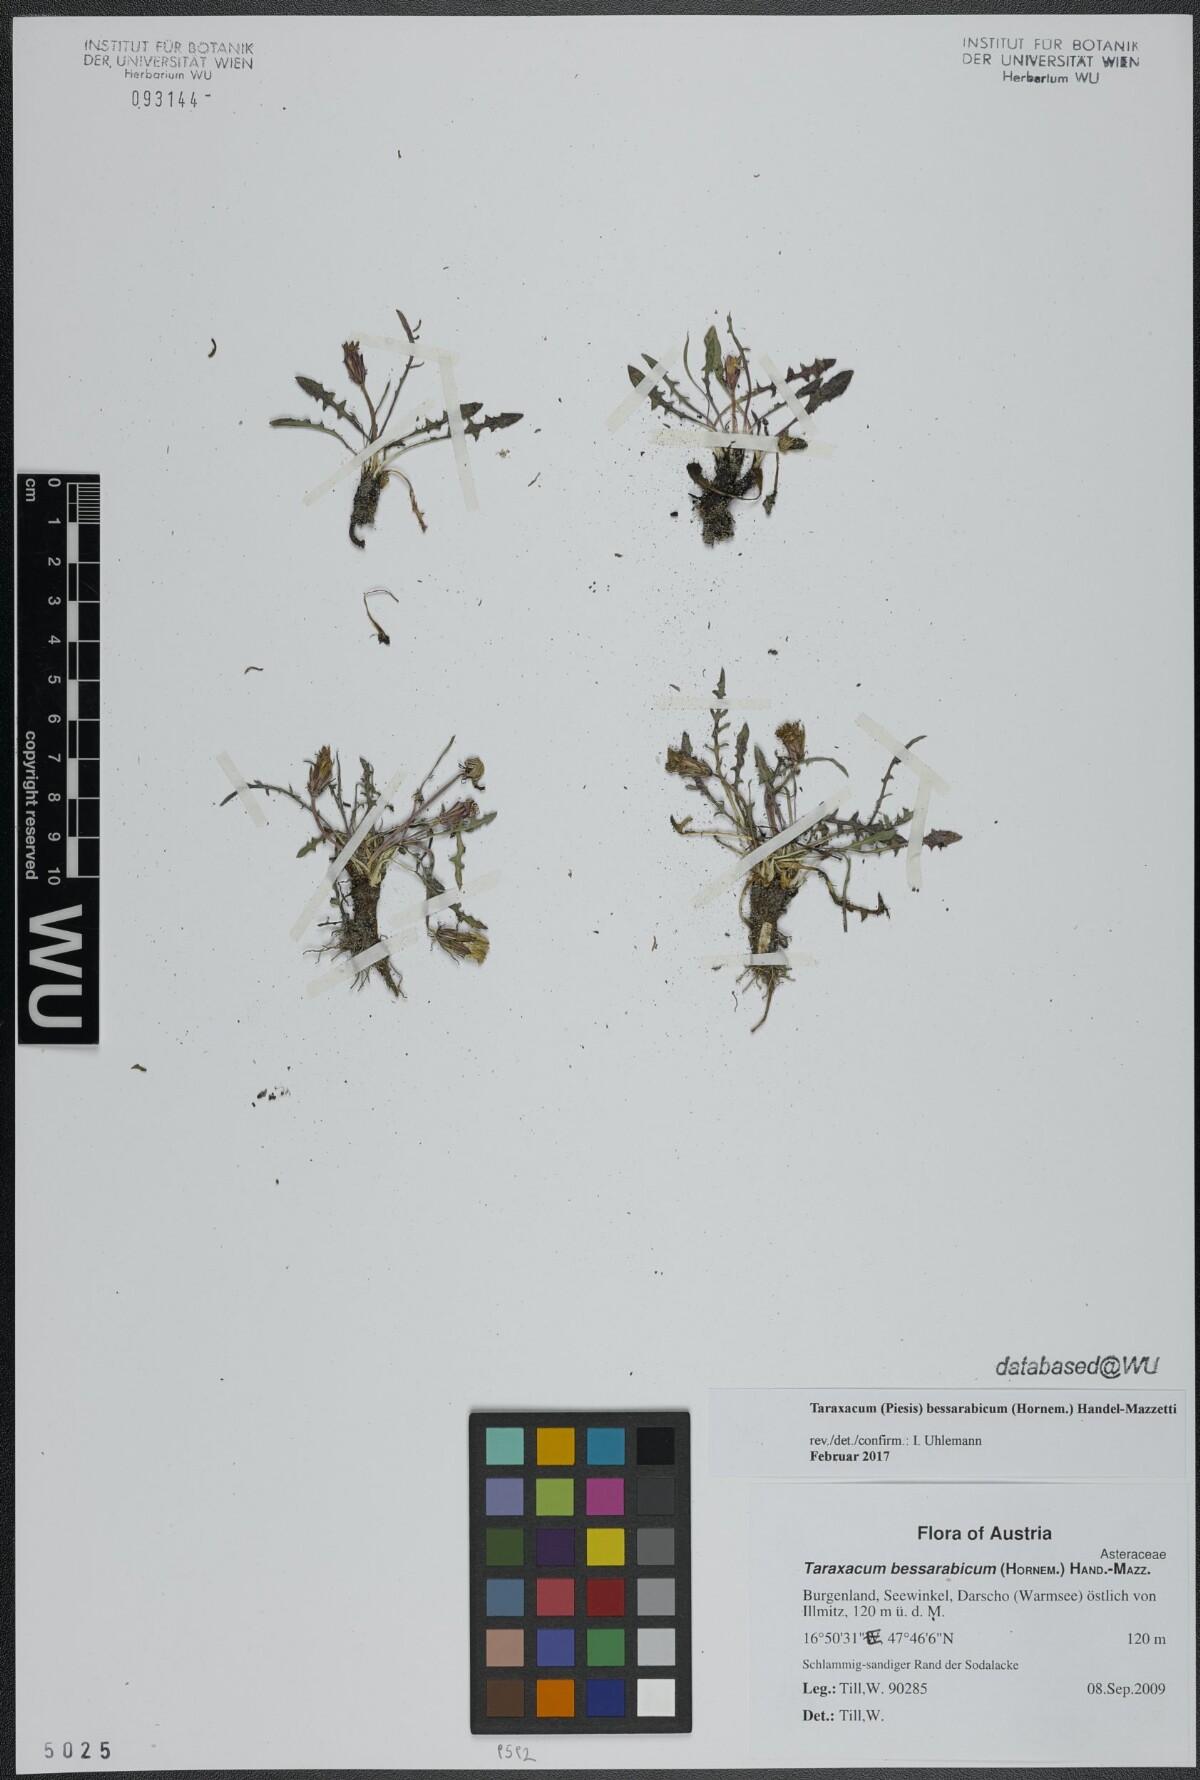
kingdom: Plantae
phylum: Tracheophyta
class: Magnoliopsida
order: Asterales
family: Asteraceae
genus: Taraxacum
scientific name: Taraxacum bessarabicum
